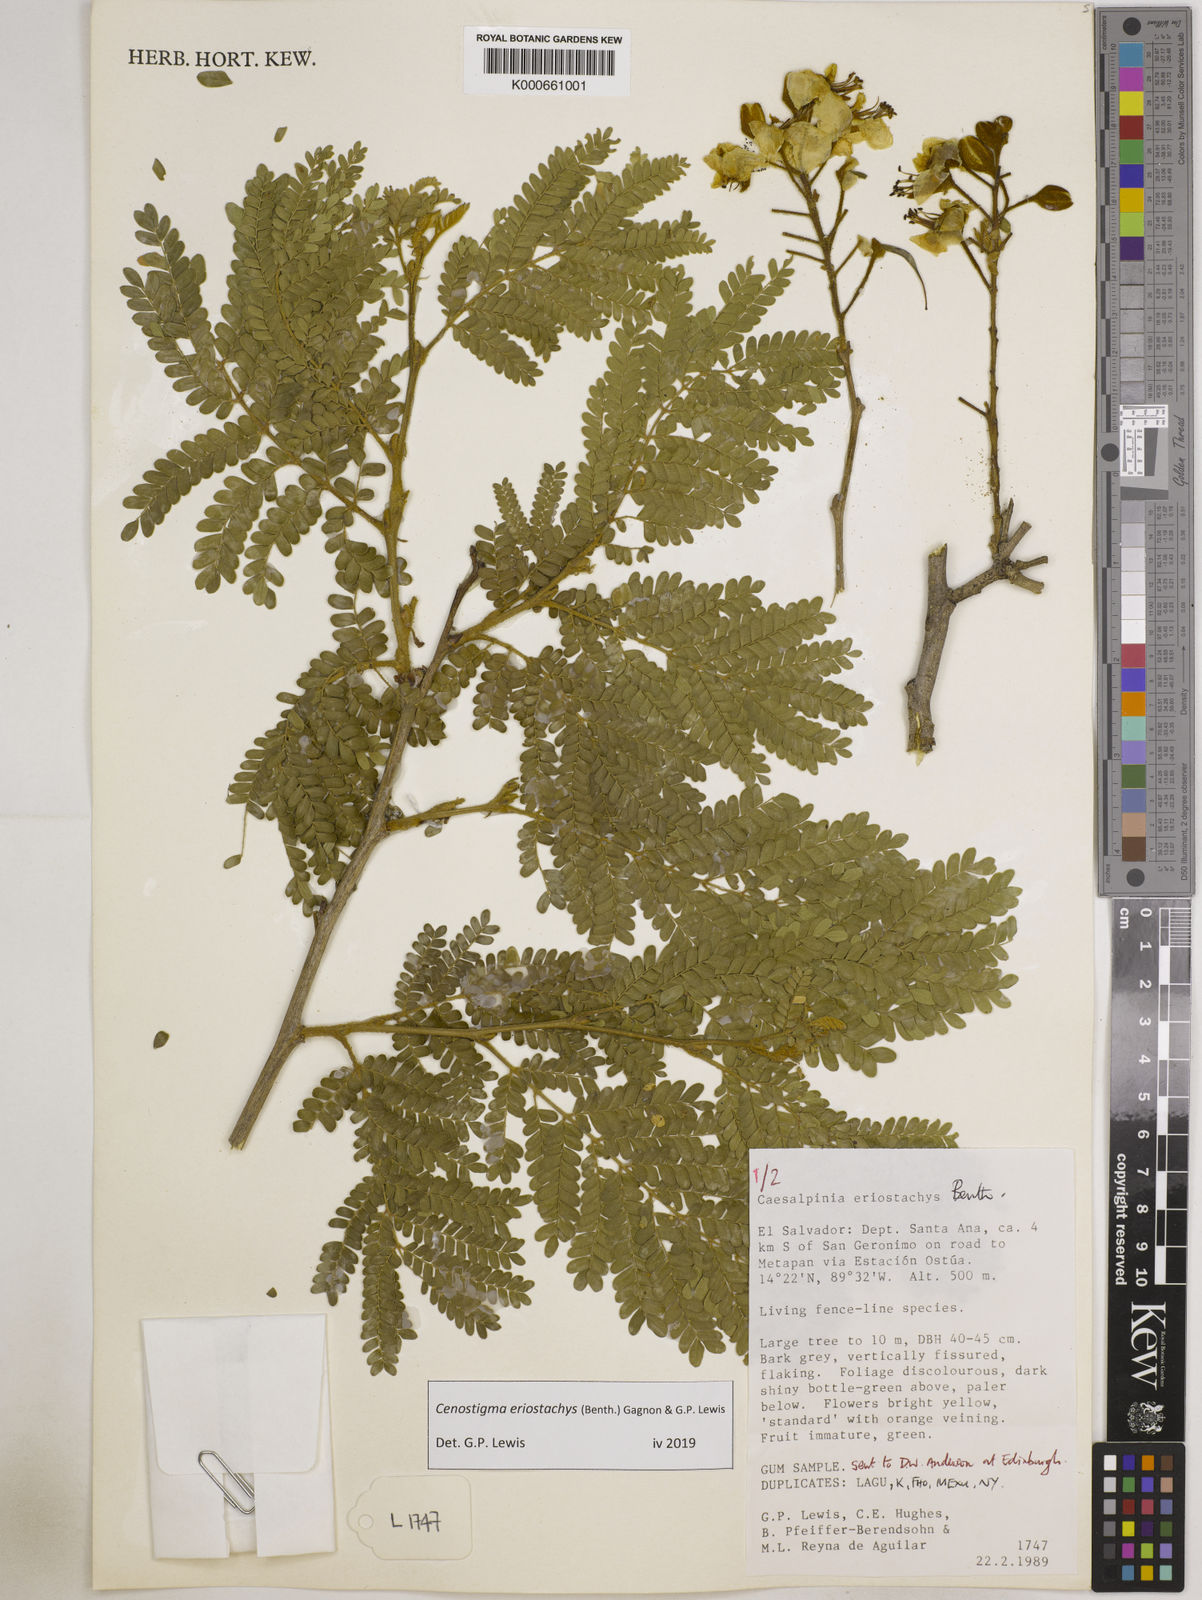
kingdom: Plantae
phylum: Tracheophyta
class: Magnoliopsida
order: Fabales
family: Fabaceae
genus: Cenostigma
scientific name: Cenostigma eriostachys
